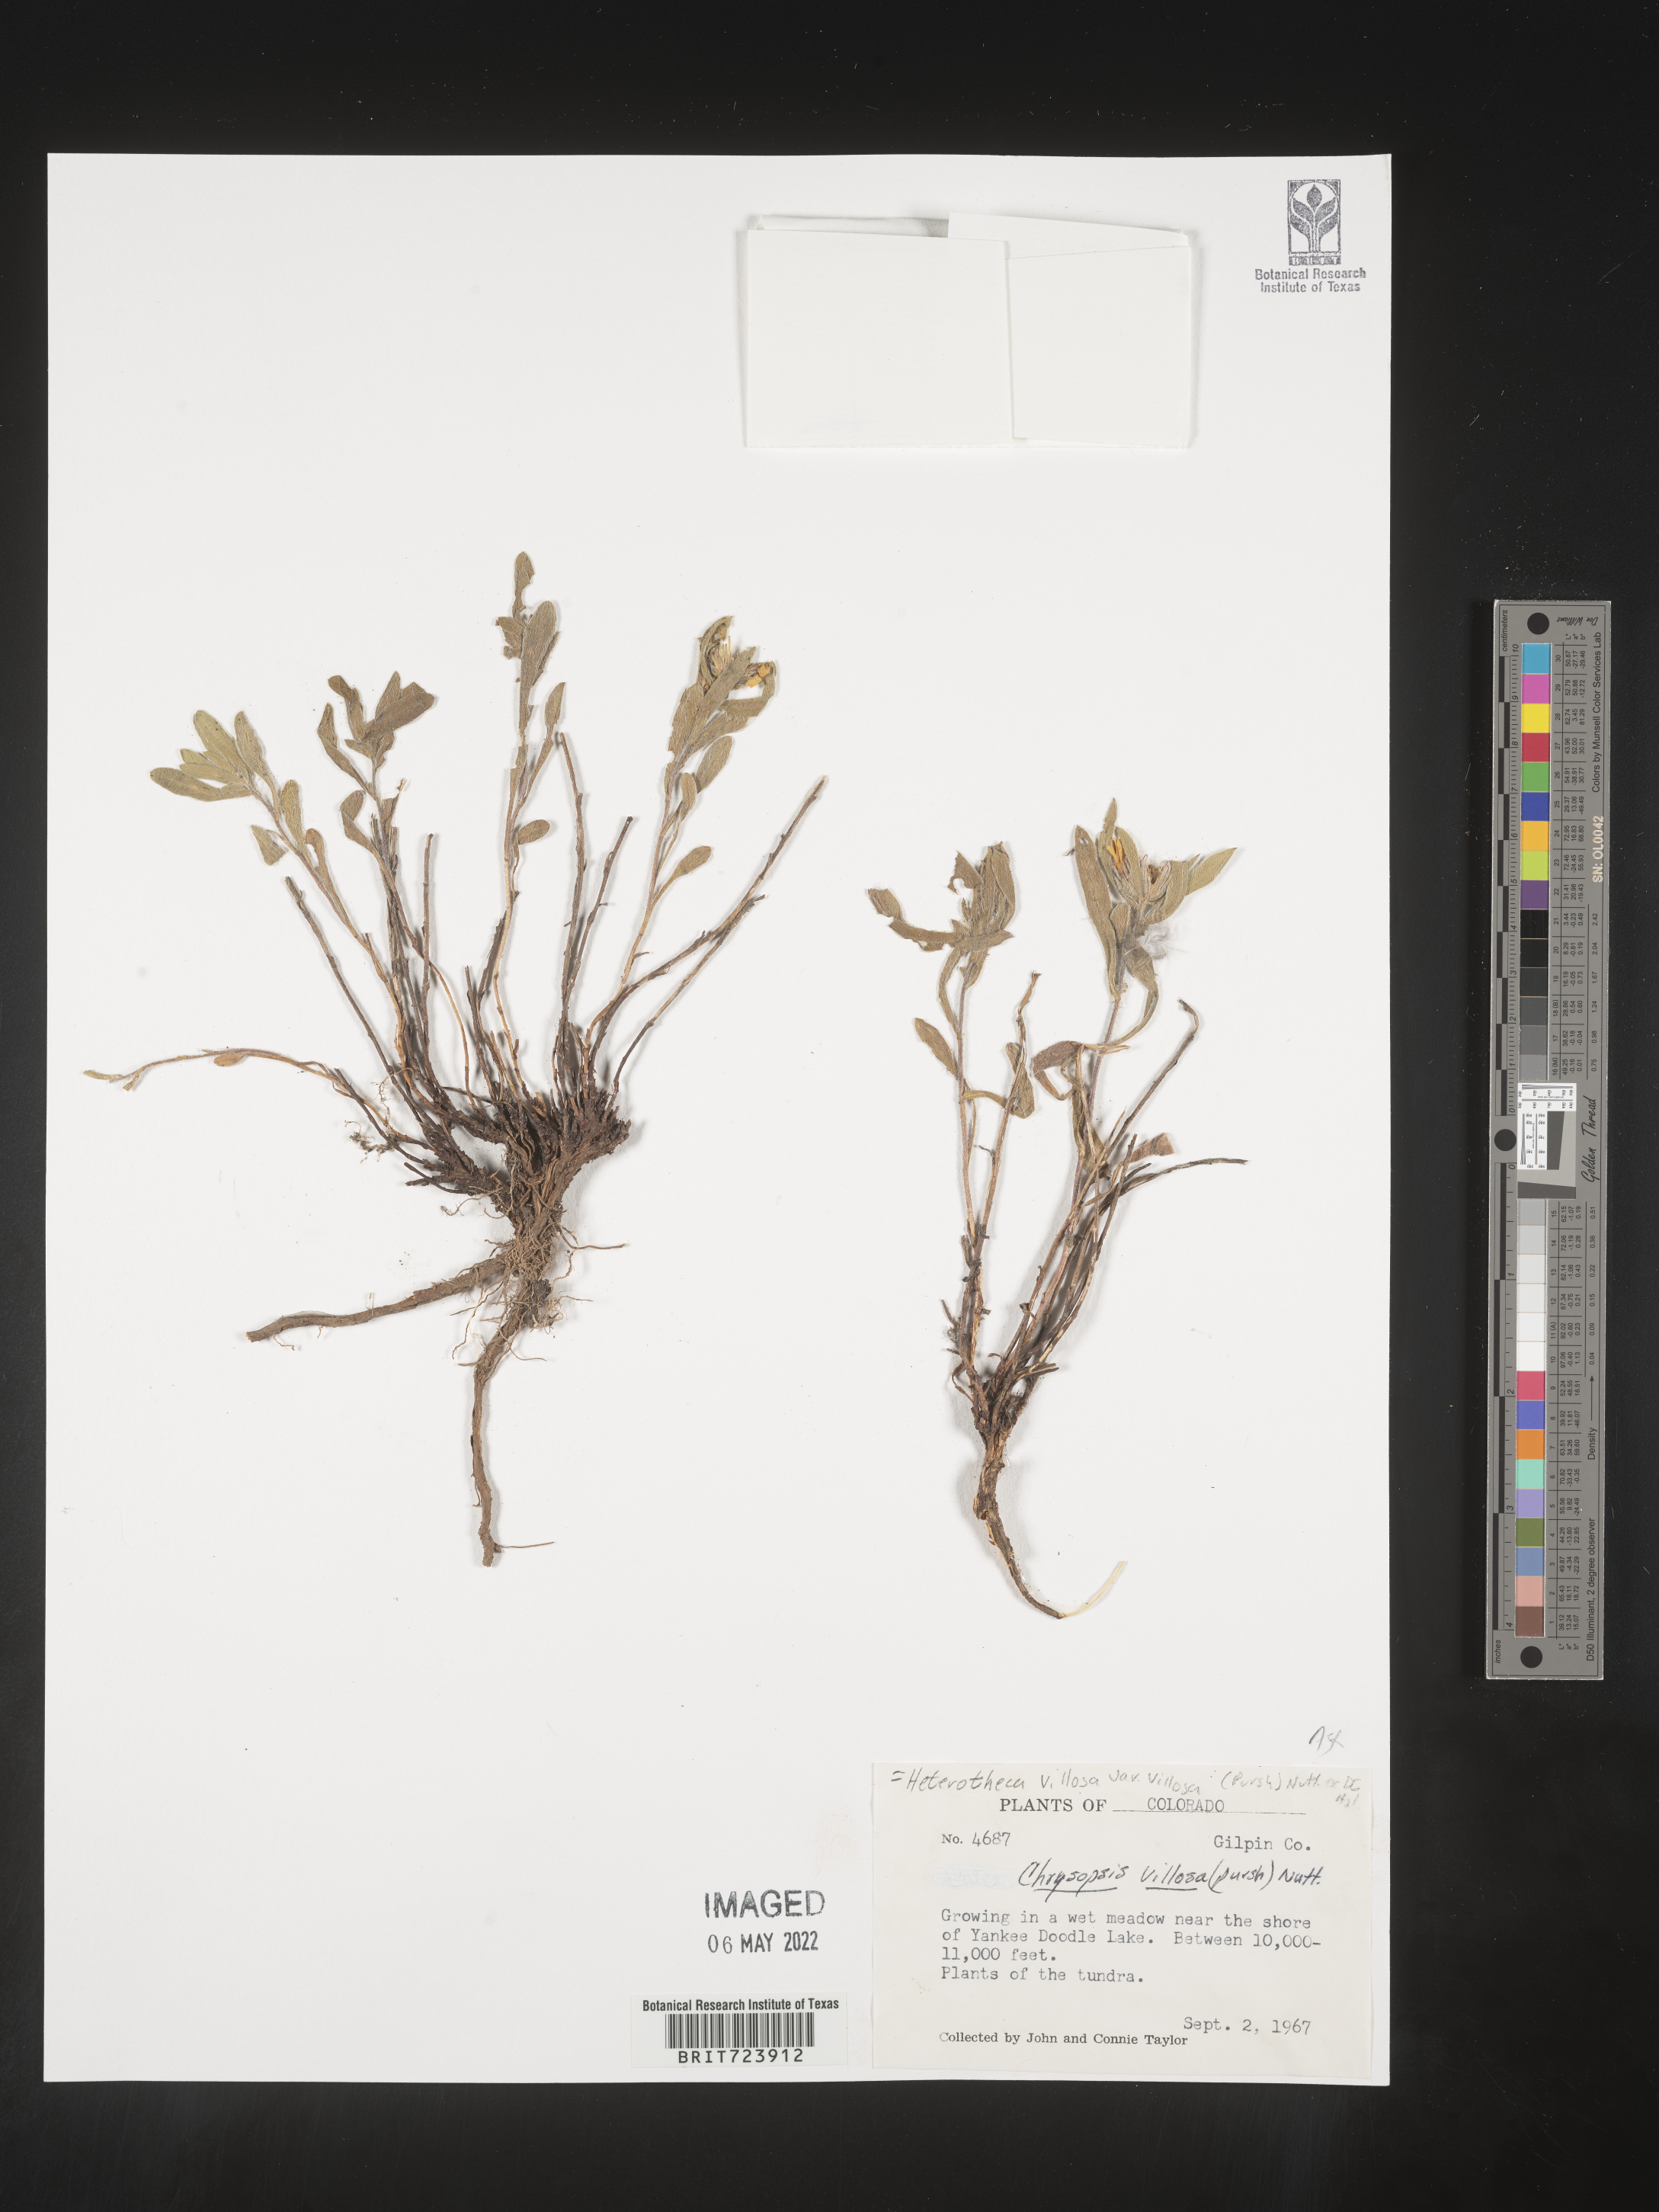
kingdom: Plantae
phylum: Tracheophyta
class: Magnoliopsida
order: Asterales
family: Asteraceae
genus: Heterotheca
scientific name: Heterotheca pumila
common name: Alpine golden-aster
